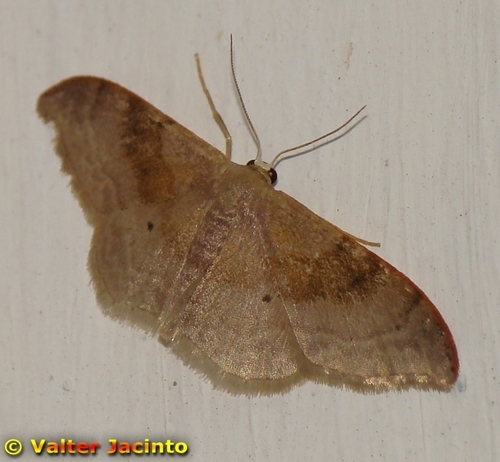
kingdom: Animalia
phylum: Arthropoda
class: Insecta
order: Lepidoptera
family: Geometridae
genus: Idaea
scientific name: Idaea degeneraria
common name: Portland ribbon wave
